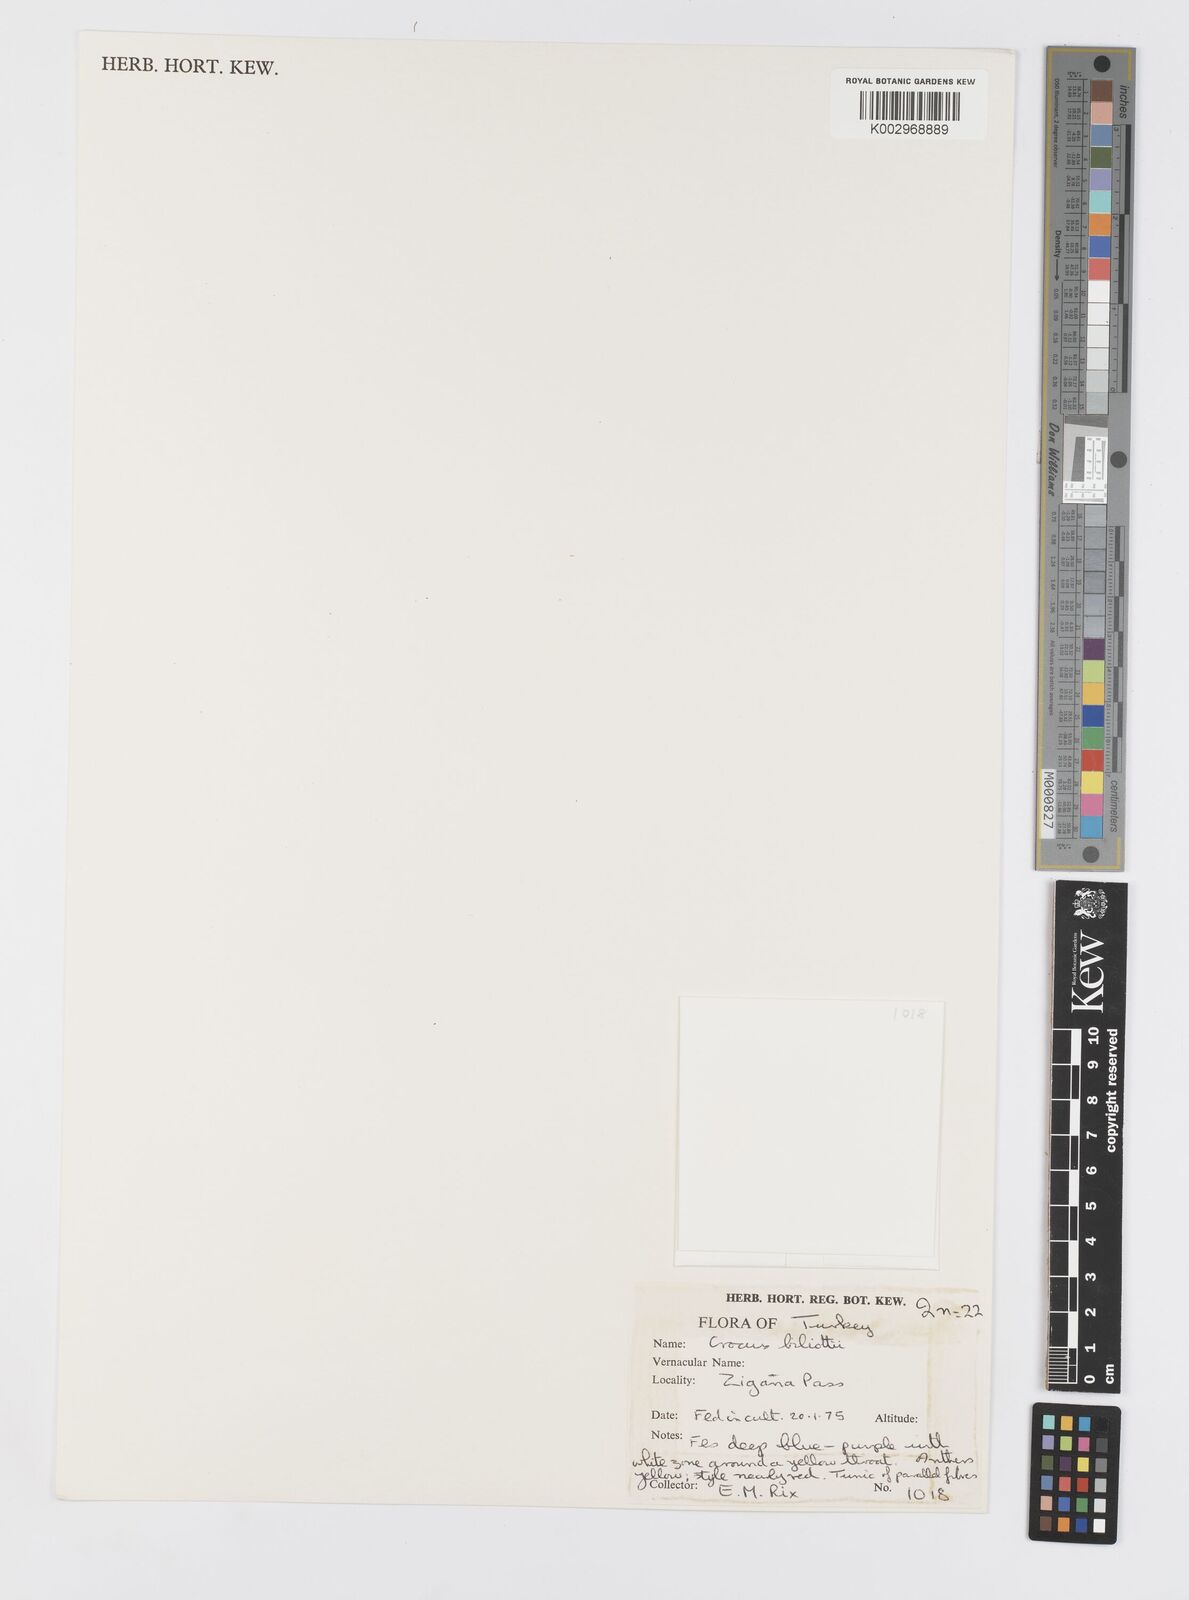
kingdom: Plantae
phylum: Tracheophyta
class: Liliopsida
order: Asparagales
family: Iridaceae
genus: Crocus
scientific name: Crocus aerius
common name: Aerial crocus
